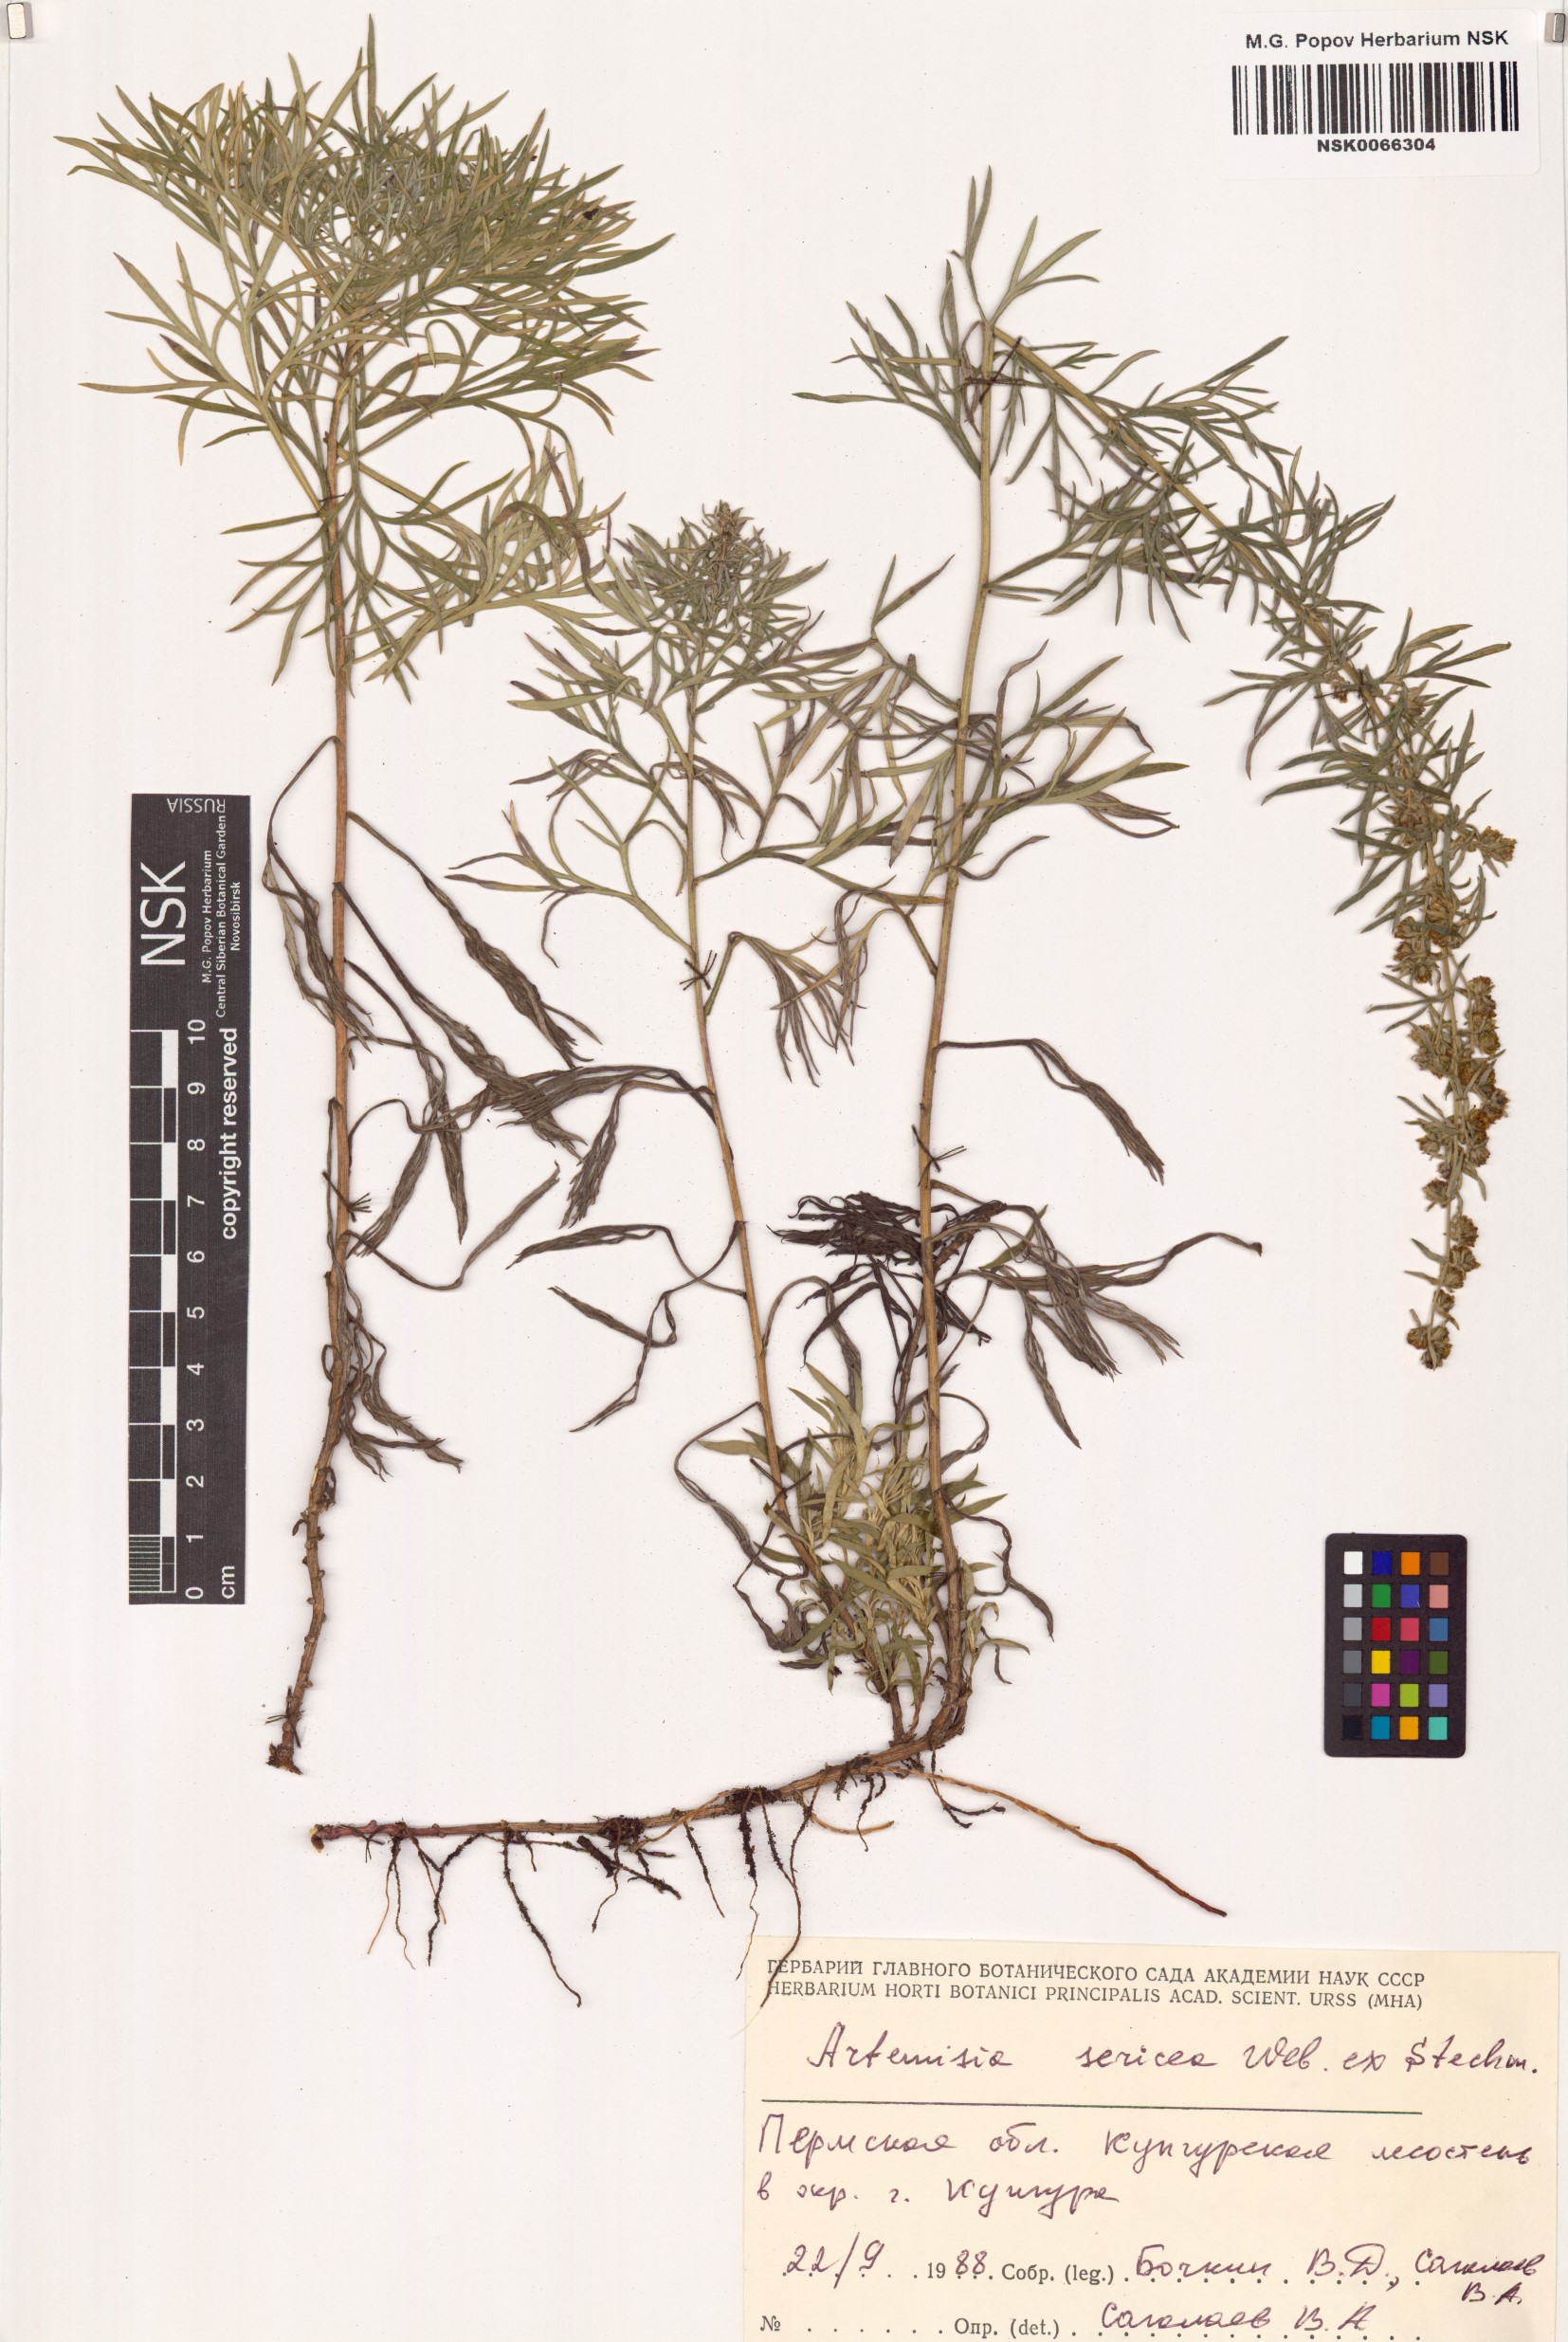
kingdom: Plantae
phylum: Tracheophyta
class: Magnoliopsida
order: Asterales
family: Asteraceae
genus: Artemisia
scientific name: Artemisia sericea
